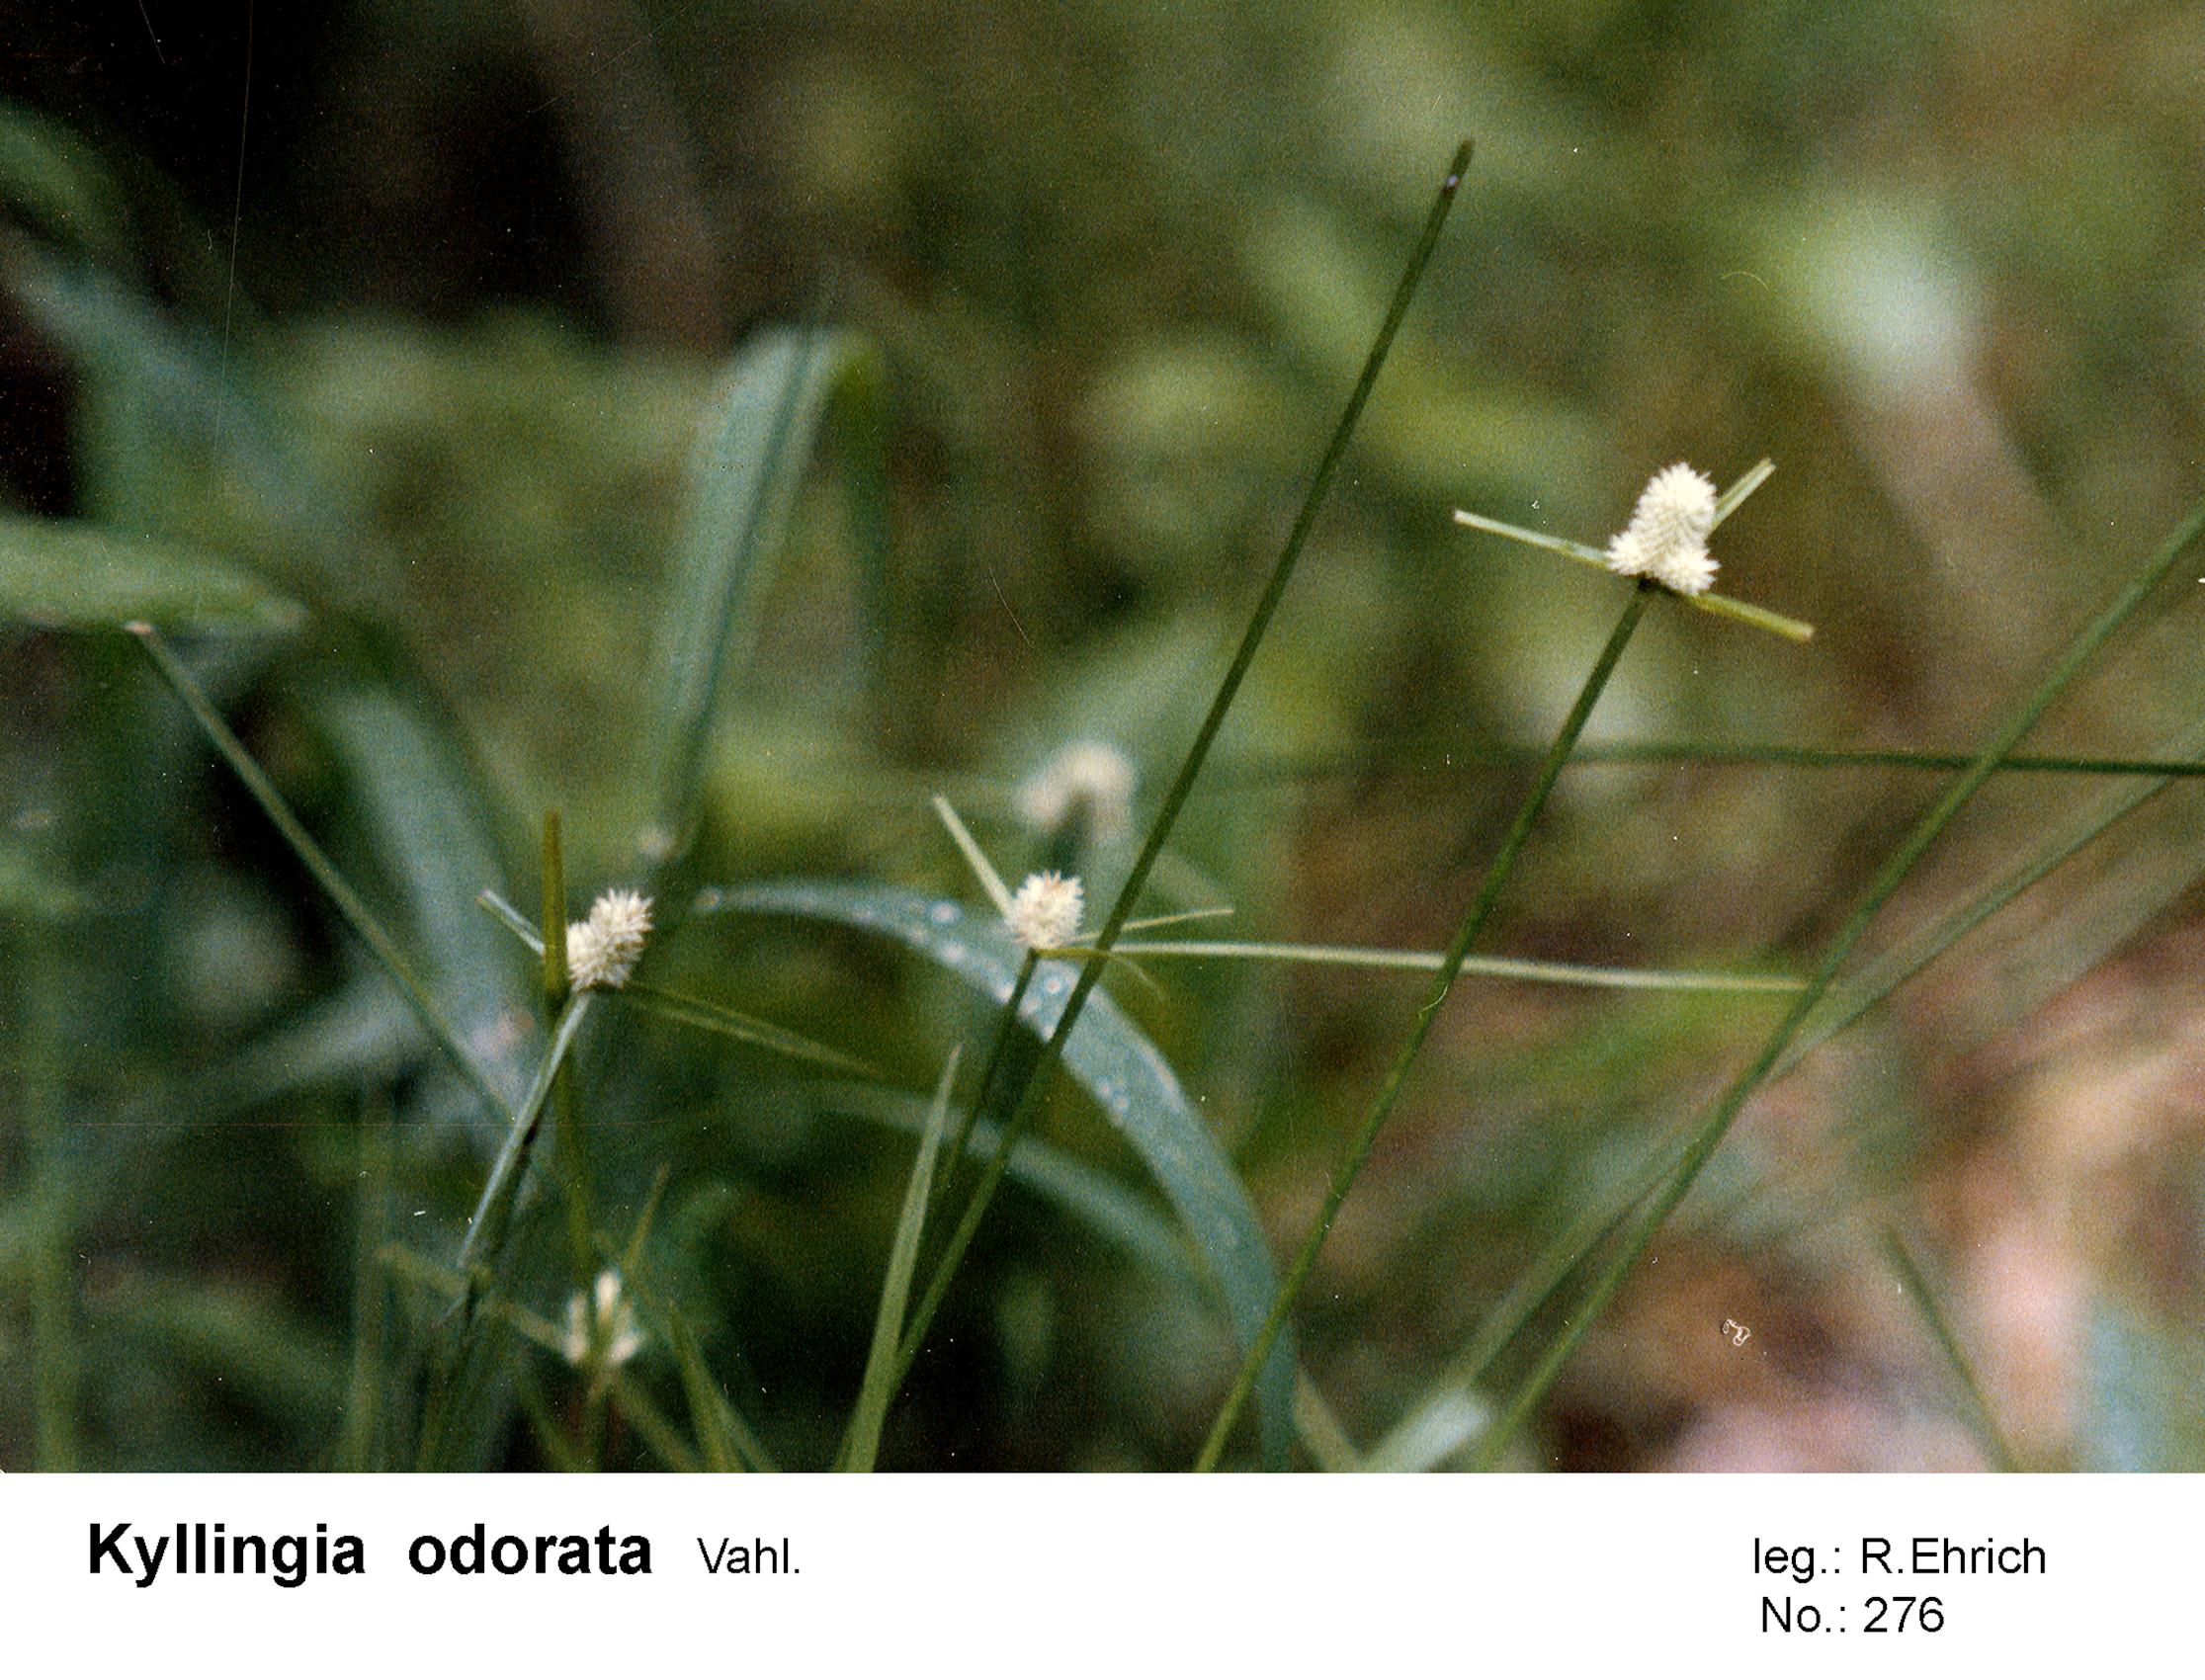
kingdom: Plantae
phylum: Tracheophyta
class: Liliopsida
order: Poales
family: Cyperaceae
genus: Cyperus
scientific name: Cyperus sesquiflorus
